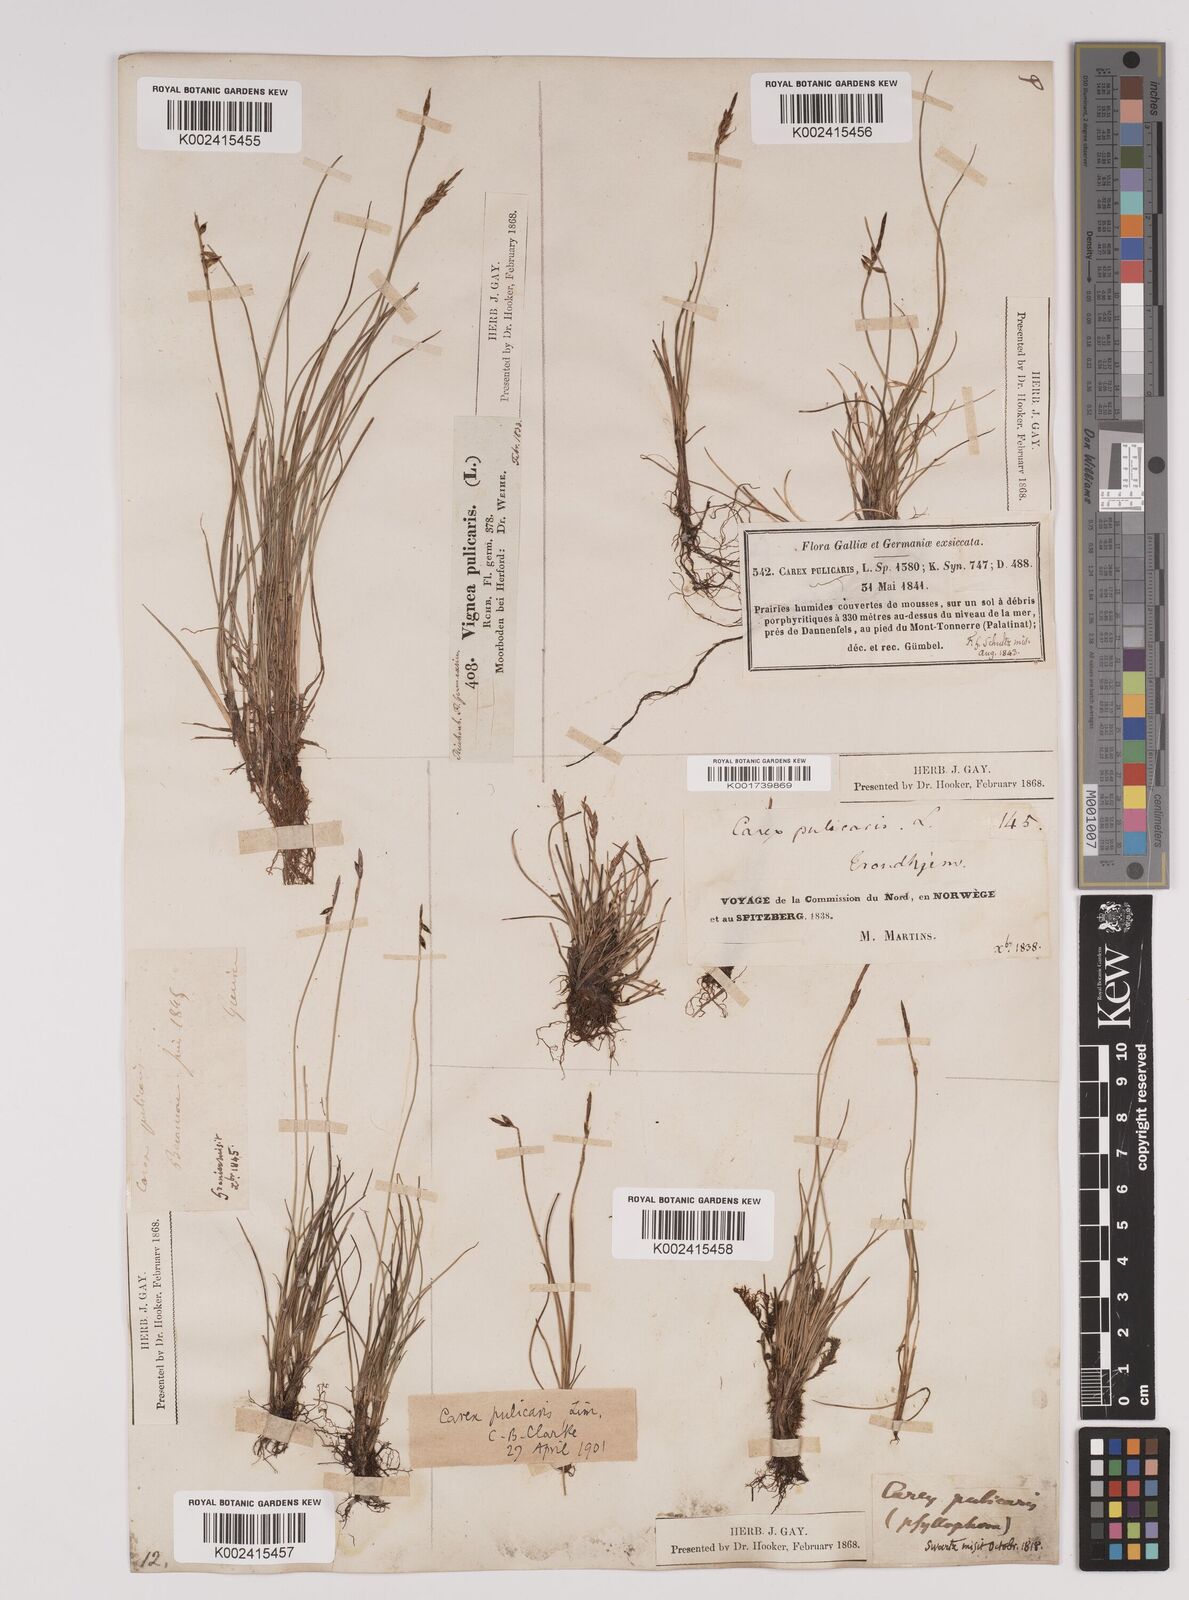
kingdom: Plantae
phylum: Tracheophyta
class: Liliopsida
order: Poales
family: Cyperaceae
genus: Carex
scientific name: Carex pulicaris
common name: Flea sedge
